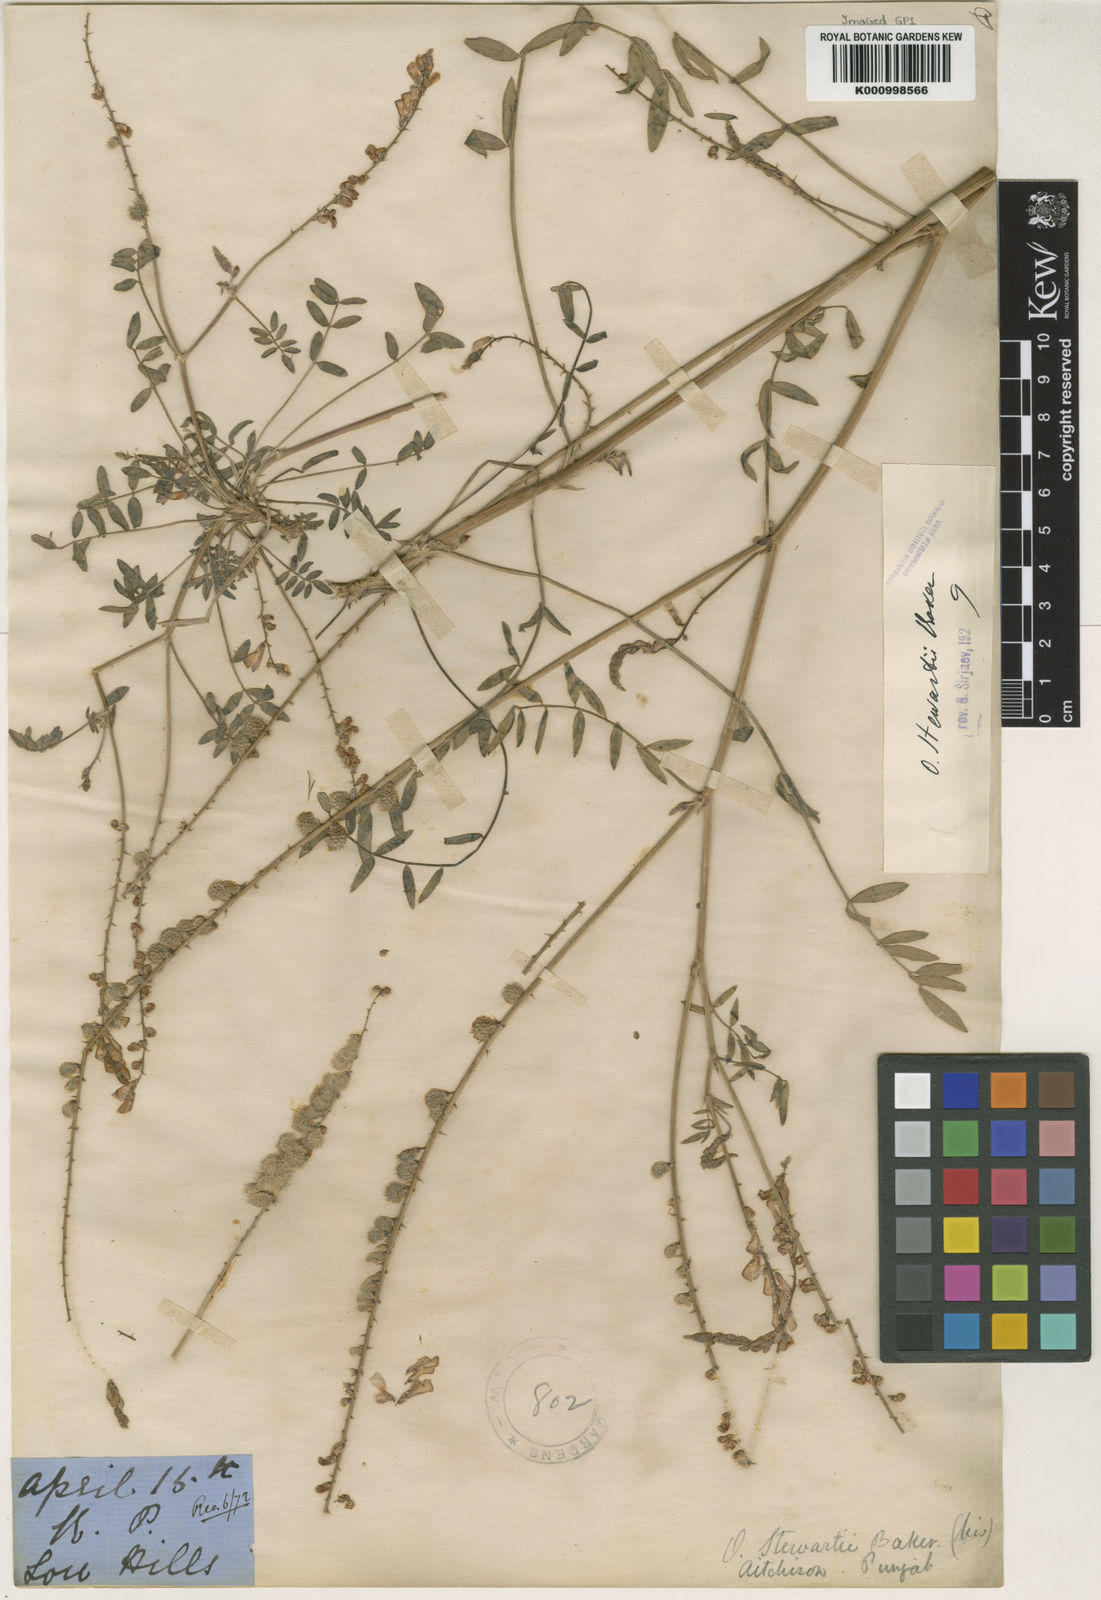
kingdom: Plantae
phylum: Tracheophyta
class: Magnoliopsida
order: Fabales
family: Fabaceae
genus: Onobrychis
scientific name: Onobrychis stewartii
